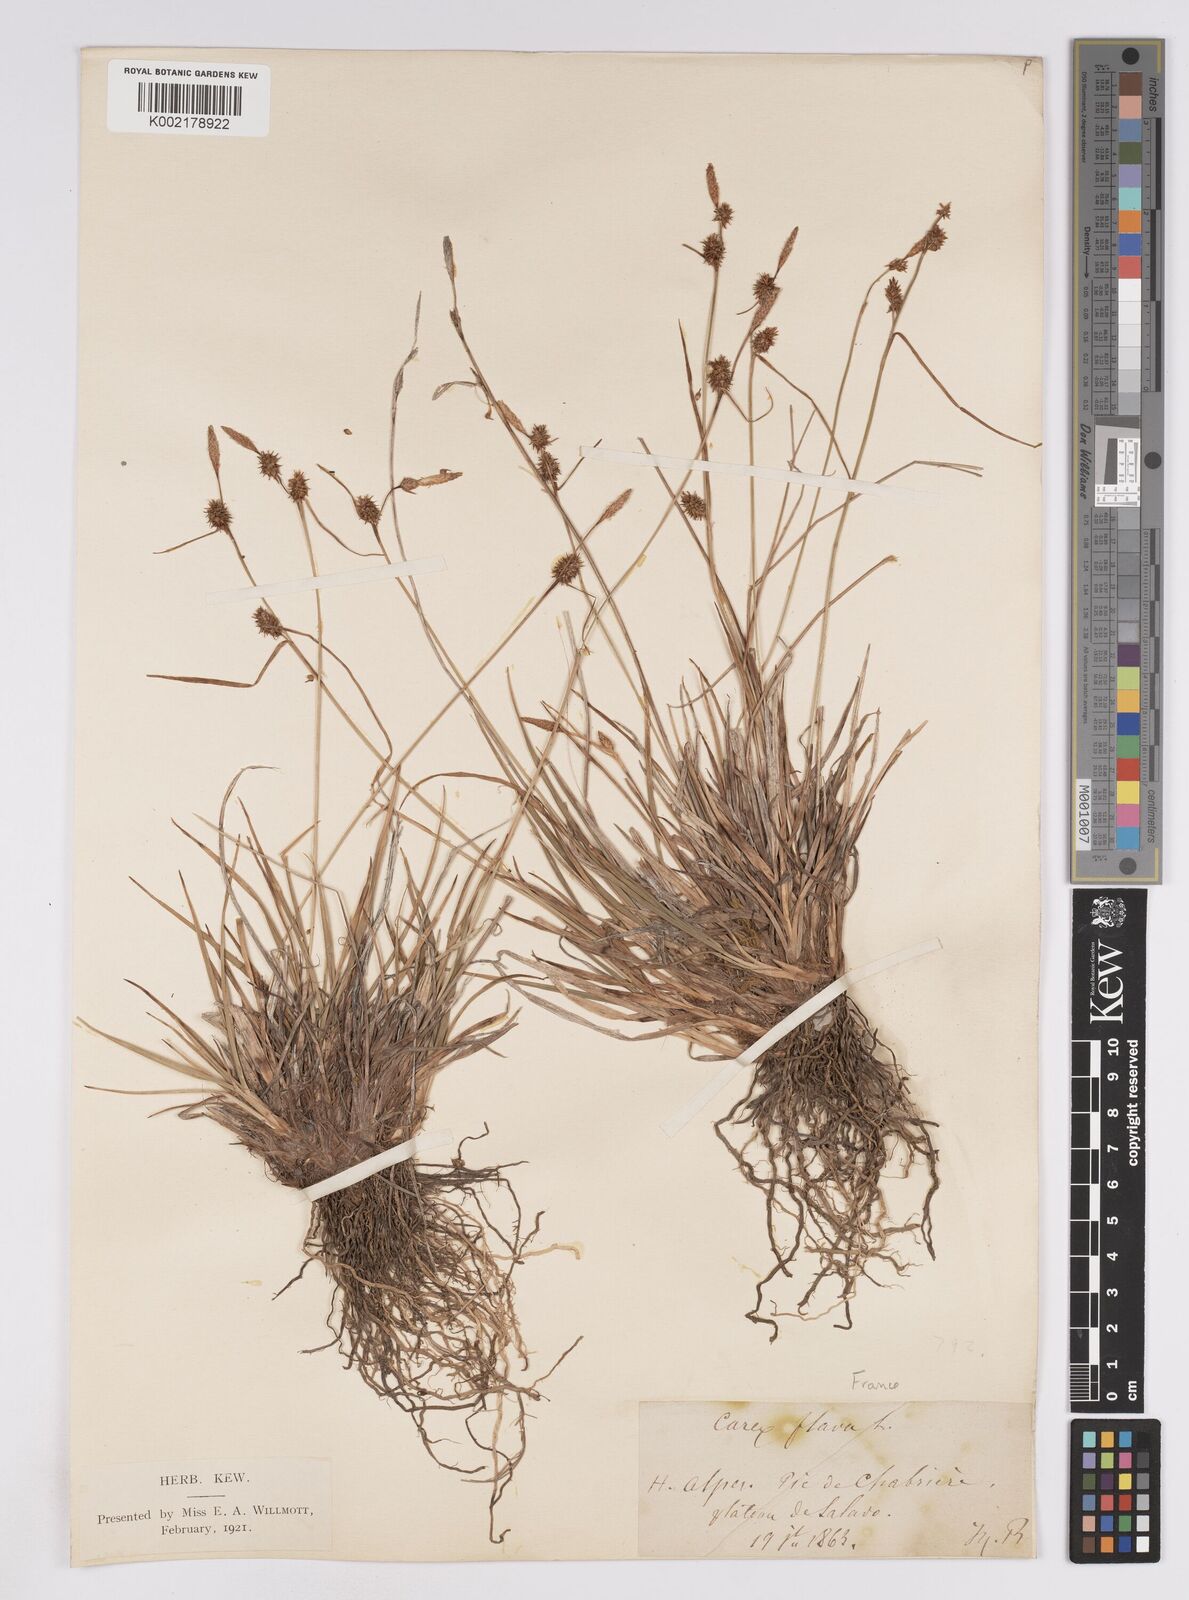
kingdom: Plantae
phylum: Tracheophyta
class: Liliopsida
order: Poales
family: Cyperaceae
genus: Carex
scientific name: Carex lepidocarpa
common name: Long-stalked yellow-sedge
